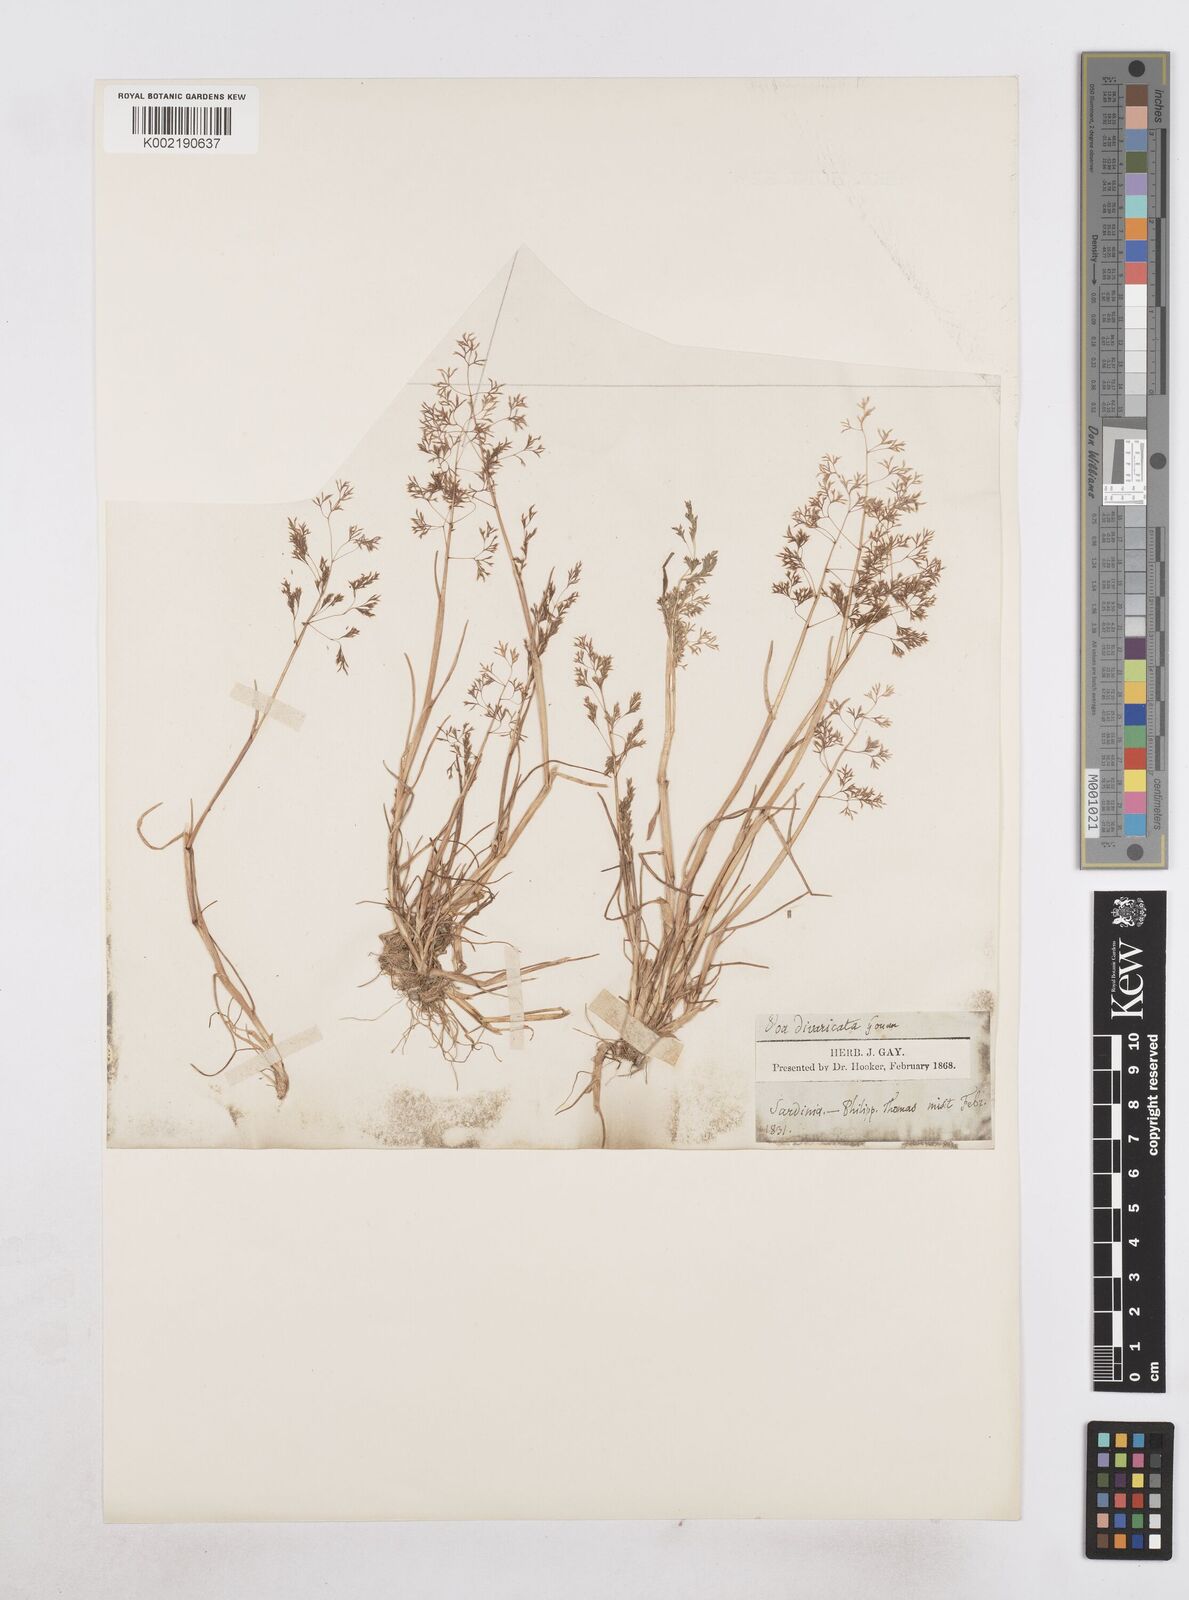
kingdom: Plantae
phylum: Tracheophyta
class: Liliopsida
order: Poales
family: Poaceae
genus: Sphenopus
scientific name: Sphenopus divaricatus
